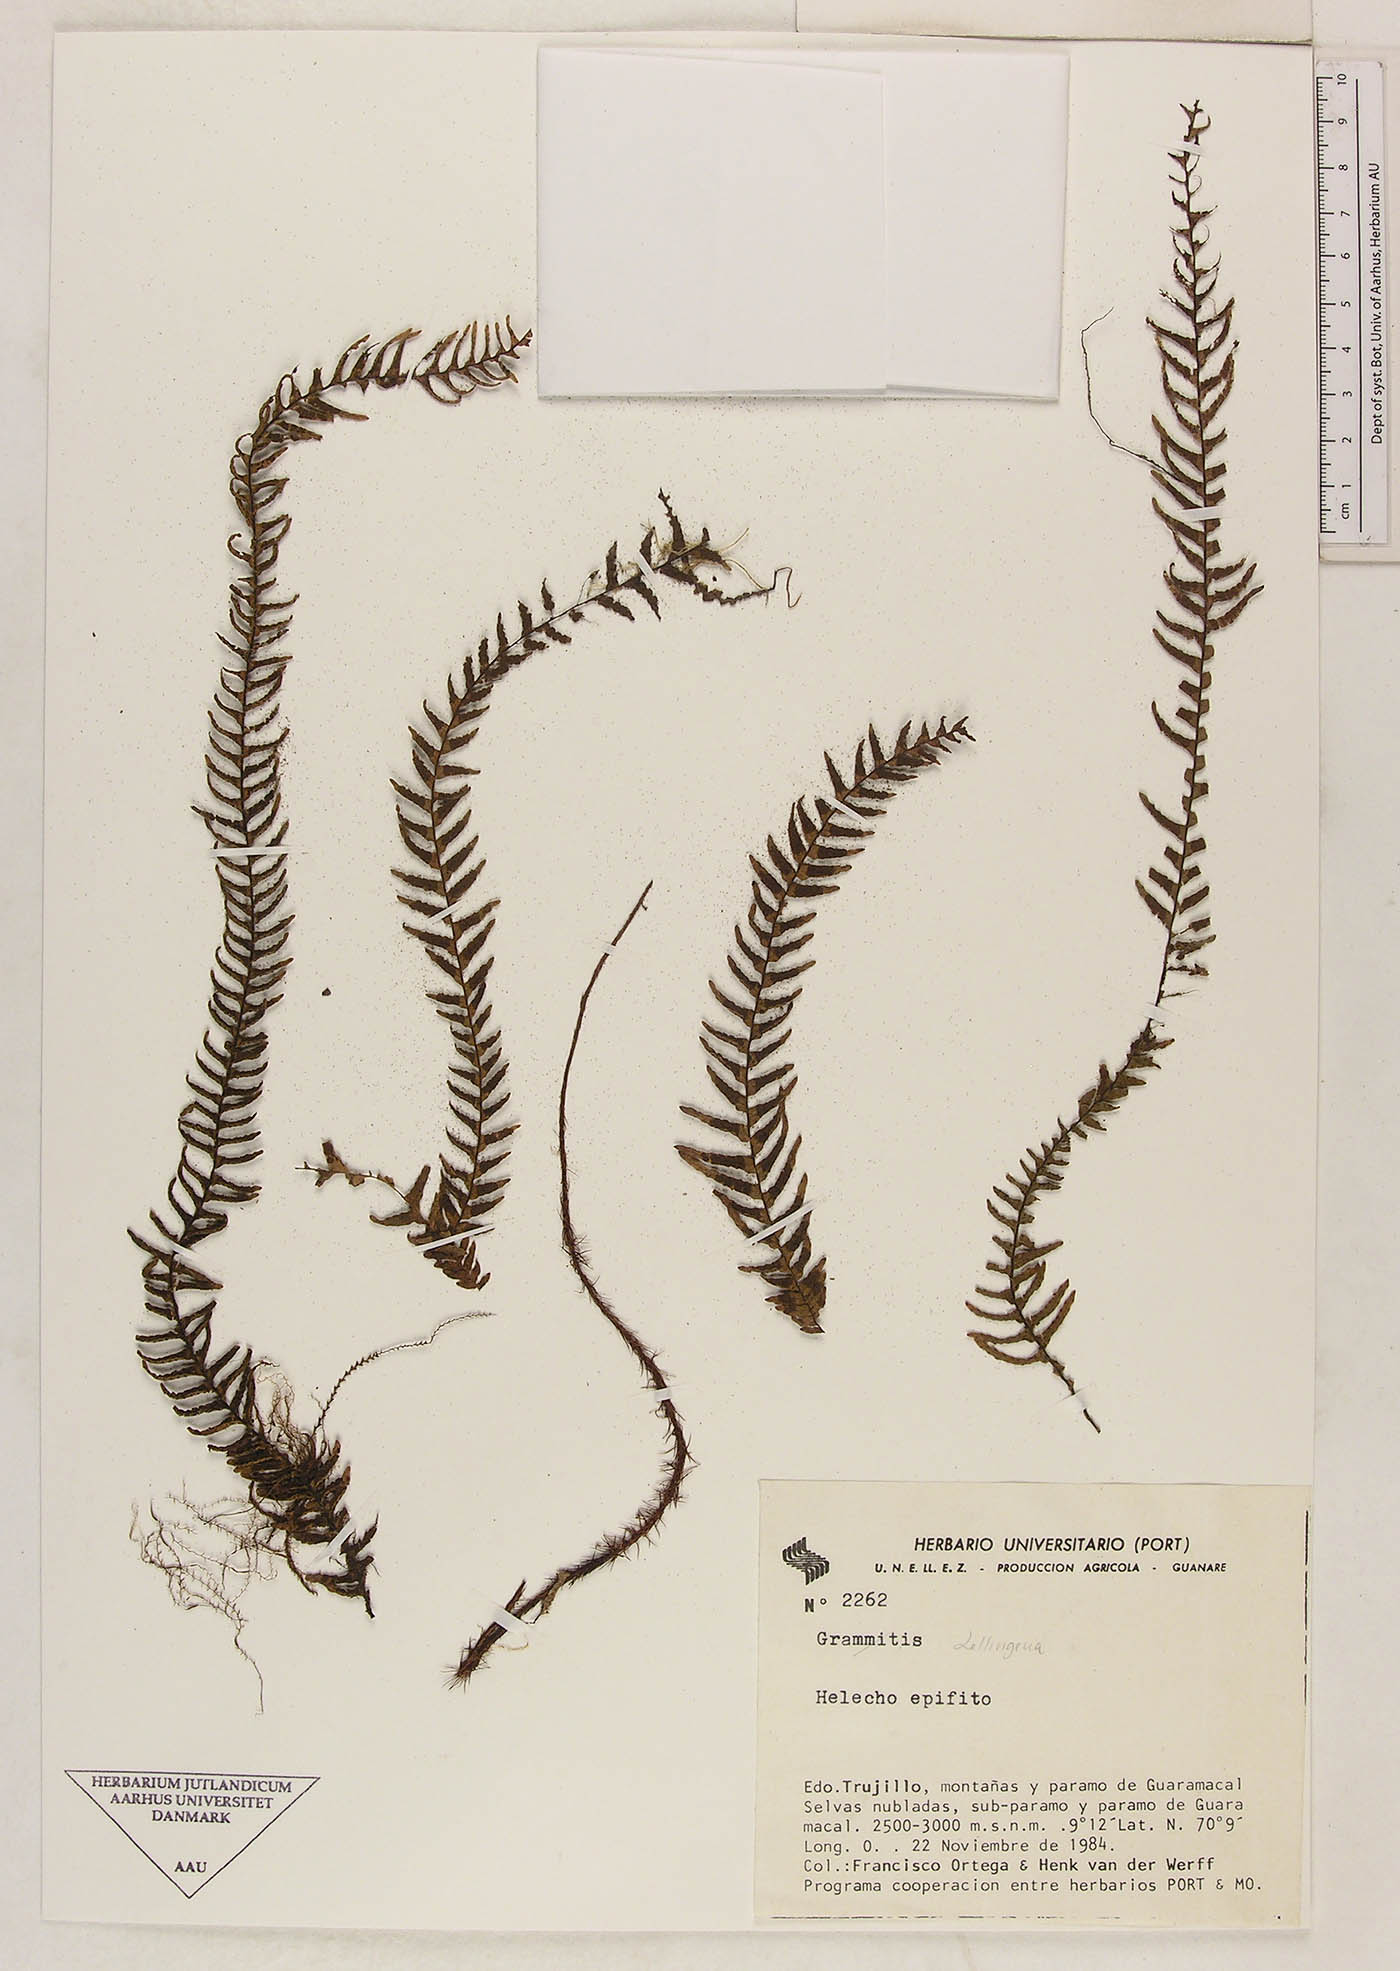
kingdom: Plantae
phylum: Tracheophyta
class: Polypodiopsida
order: Polypodiales
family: Polypodiaceae
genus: Lellingeria
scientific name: Lellingeria pendulina
